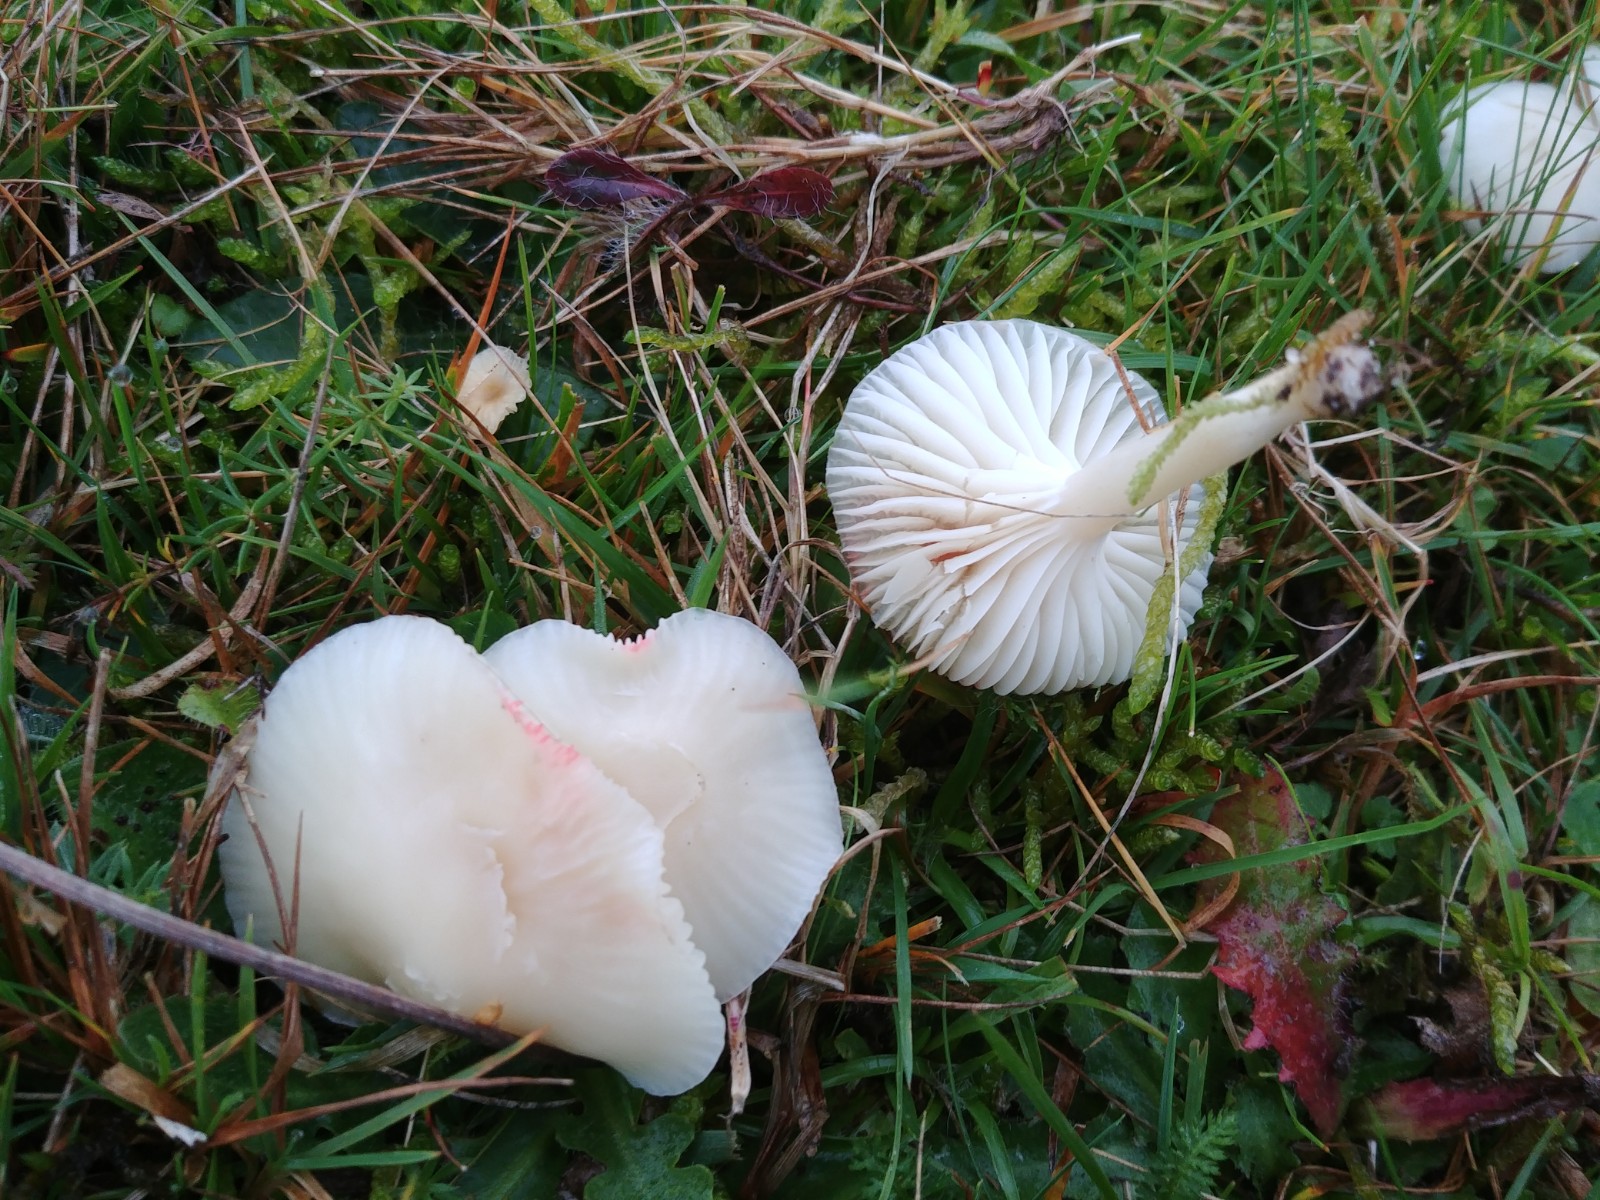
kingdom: Fungi
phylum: Basidiomycota
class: Agaricomycetes
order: Agaricales
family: Hygrophoraceae
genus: Cuphophyllus
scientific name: Cuphophyllus virgineus
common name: snehvid vokshat
